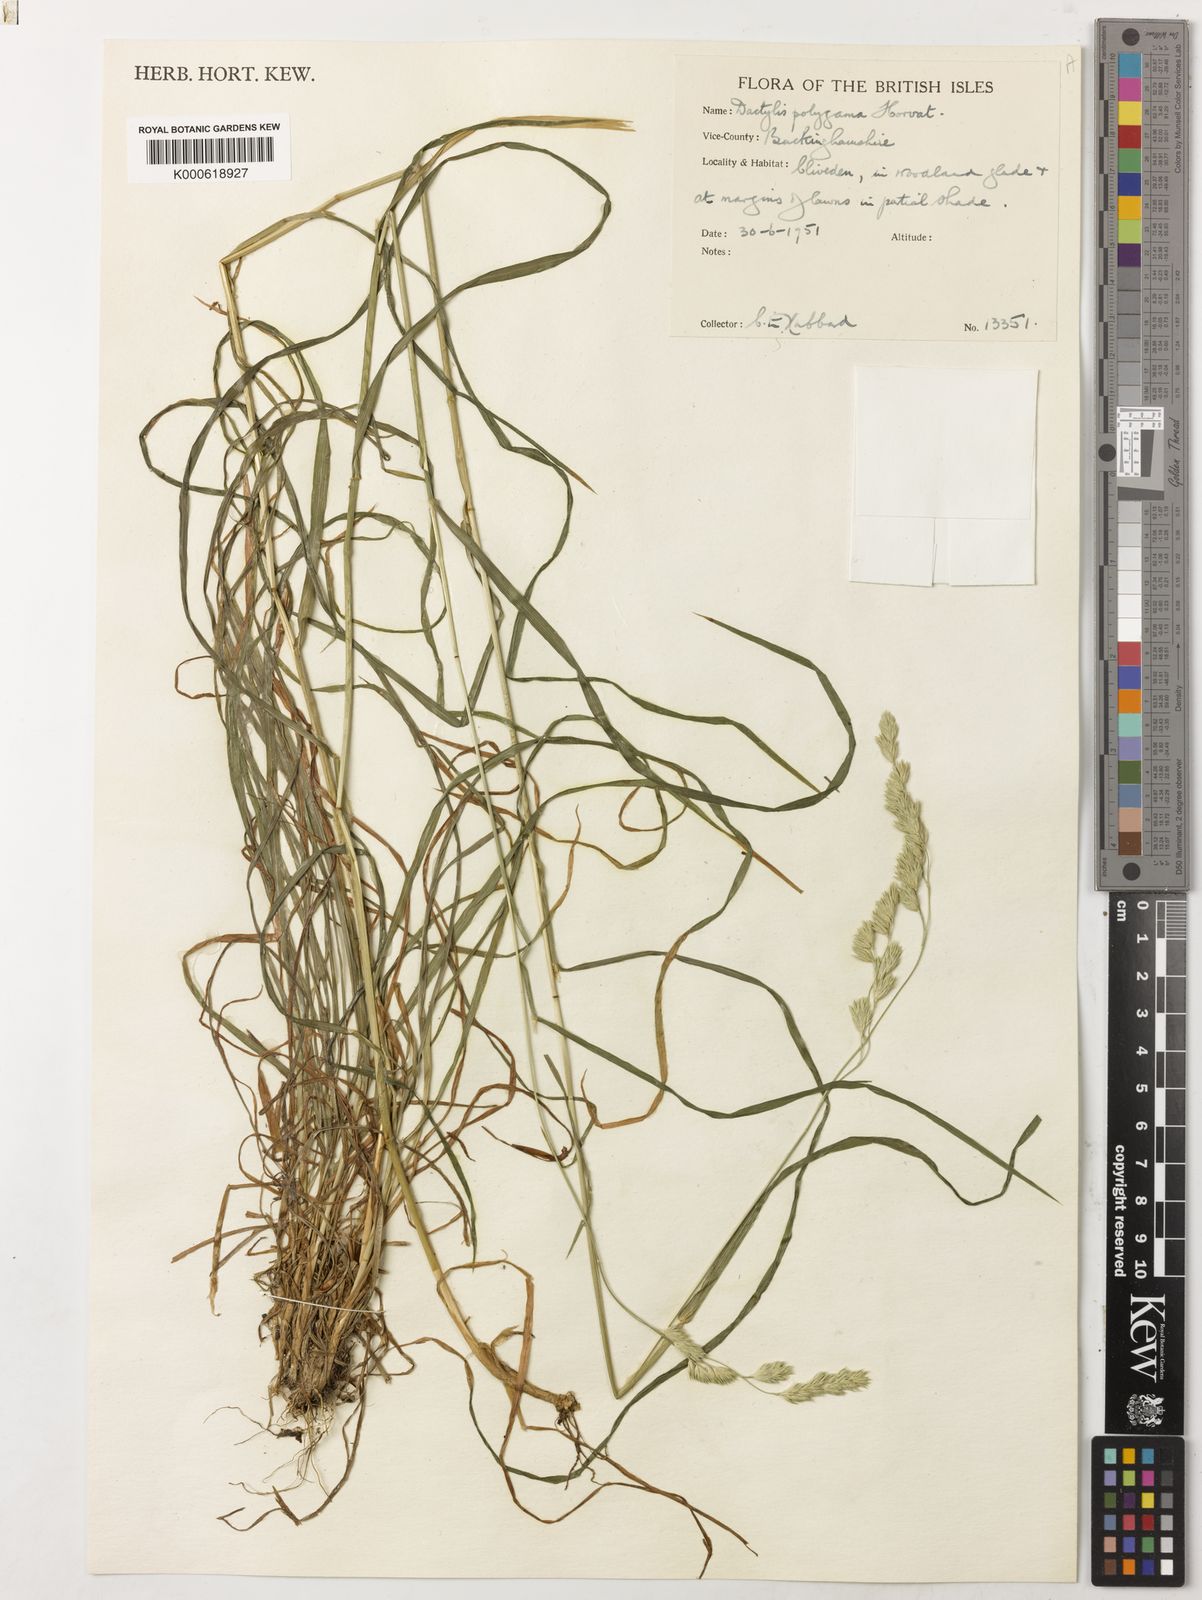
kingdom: Plantae
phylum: Tracheophyta
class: Liliopsida
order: Poales
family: Poaceae
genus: Dactylis
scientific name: Dactylis glomerata
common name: Orchardgrass
